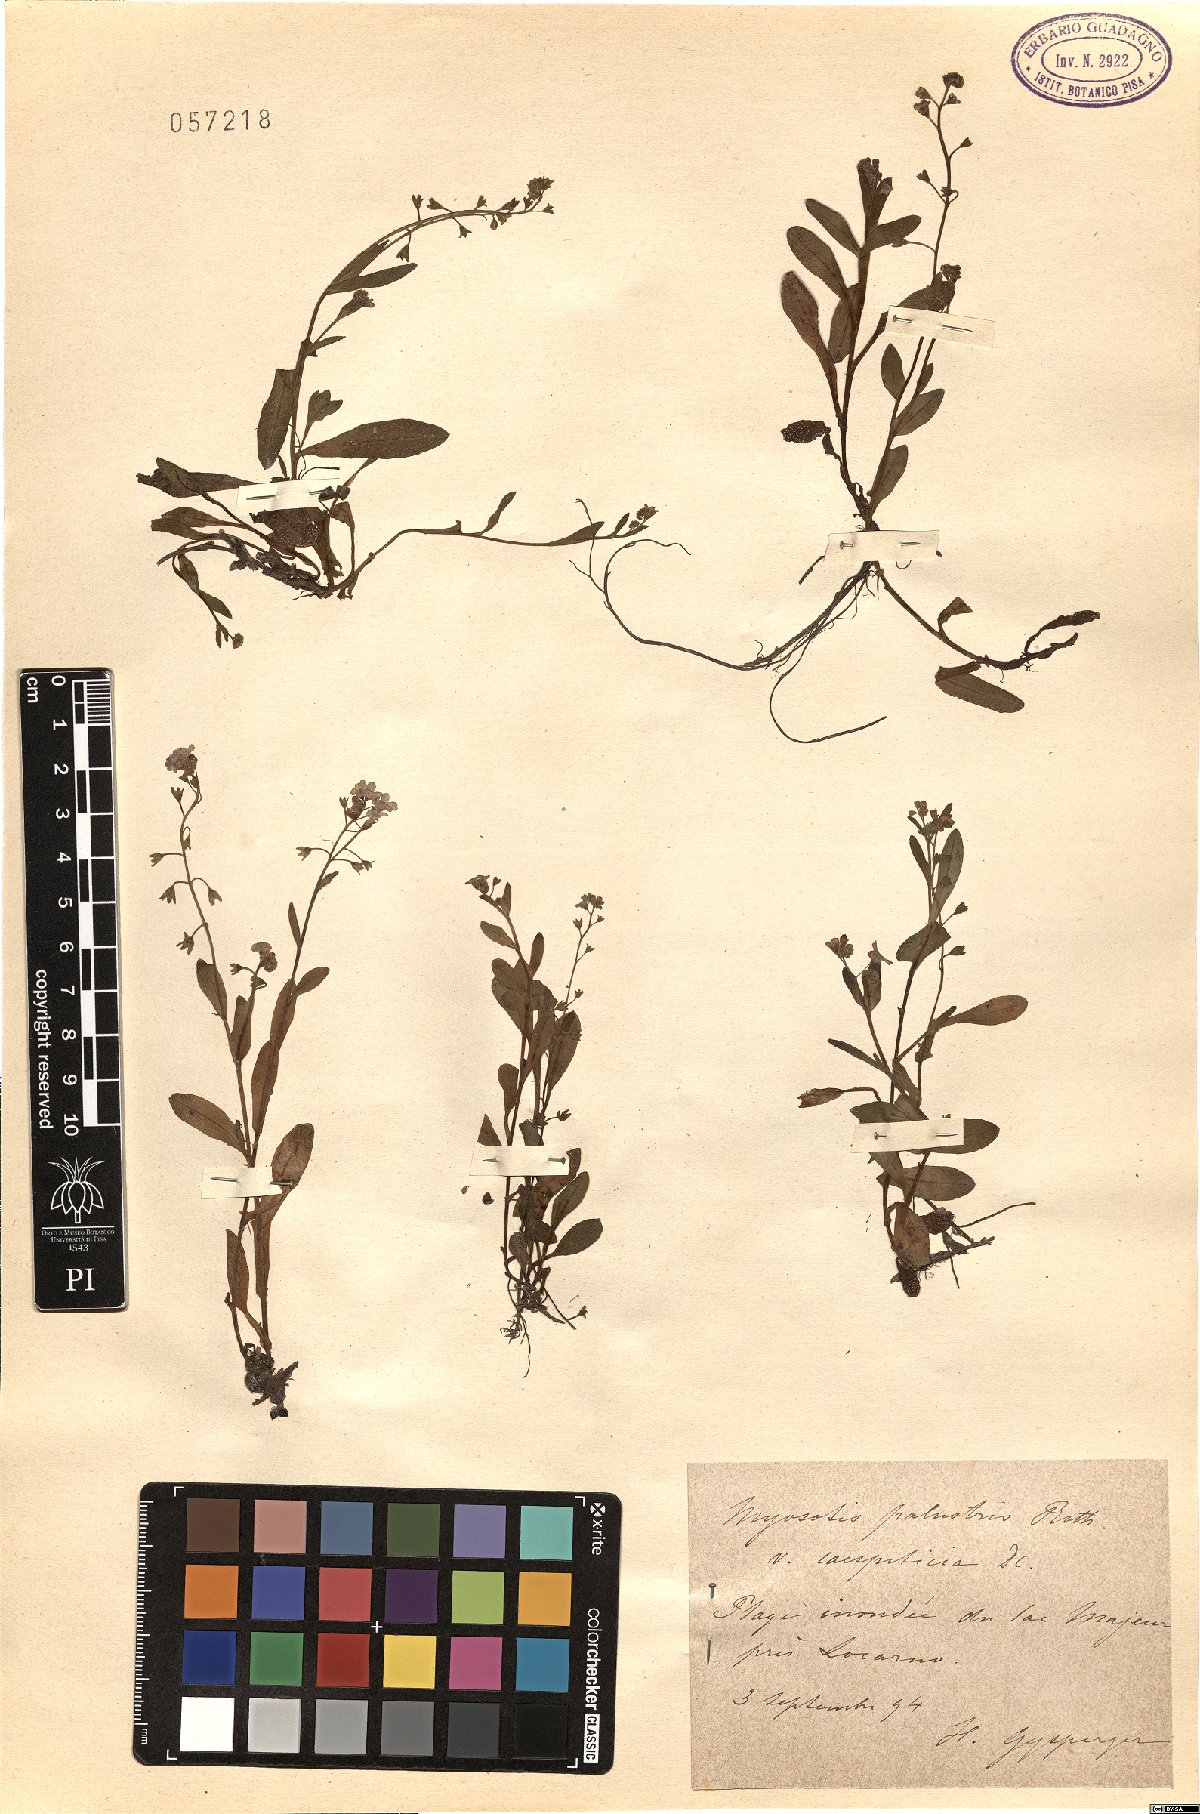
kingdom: Plantae
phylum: Tracheophyta
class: Magnoliopsida
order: Boraginales
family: Boraginaceae
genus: Myosotis
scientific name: Myosotis rehsteineri
